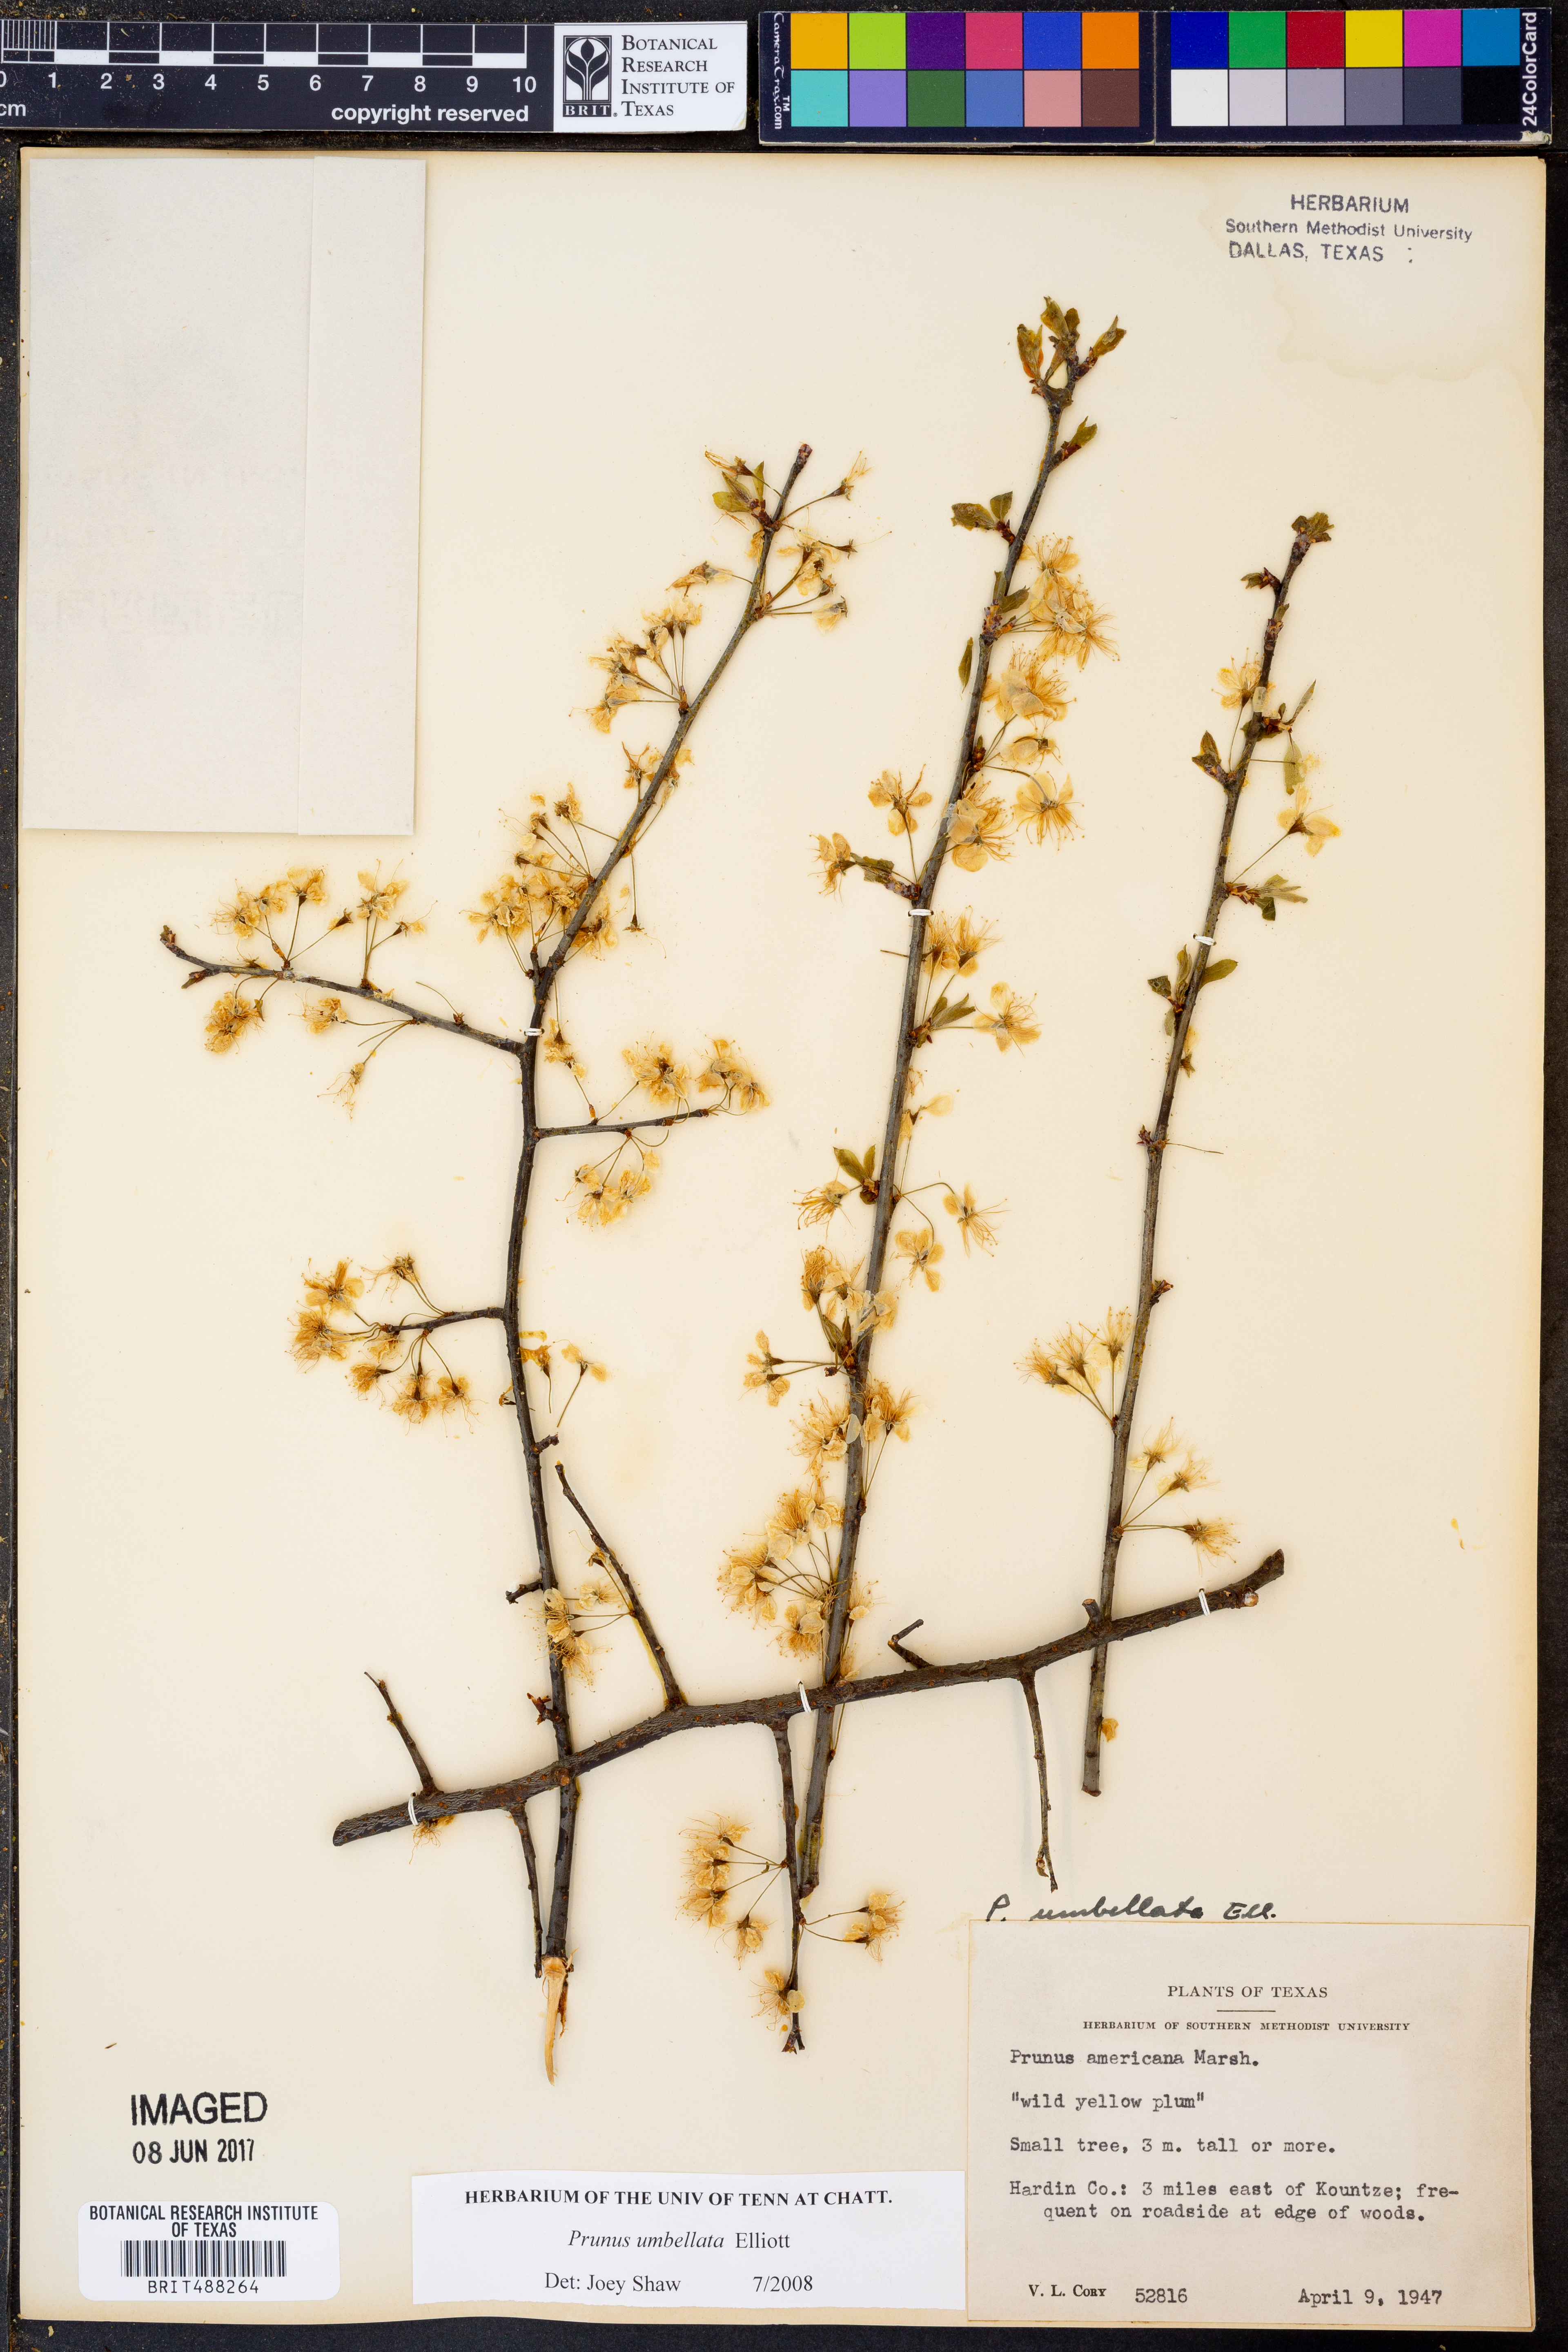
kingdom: Plantae
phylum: Tracheophyta
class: Magnoliopsida
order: Rosales
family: Rosaceae
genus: Prunus
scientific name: Prunus umbellata
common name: Allegheny plum
